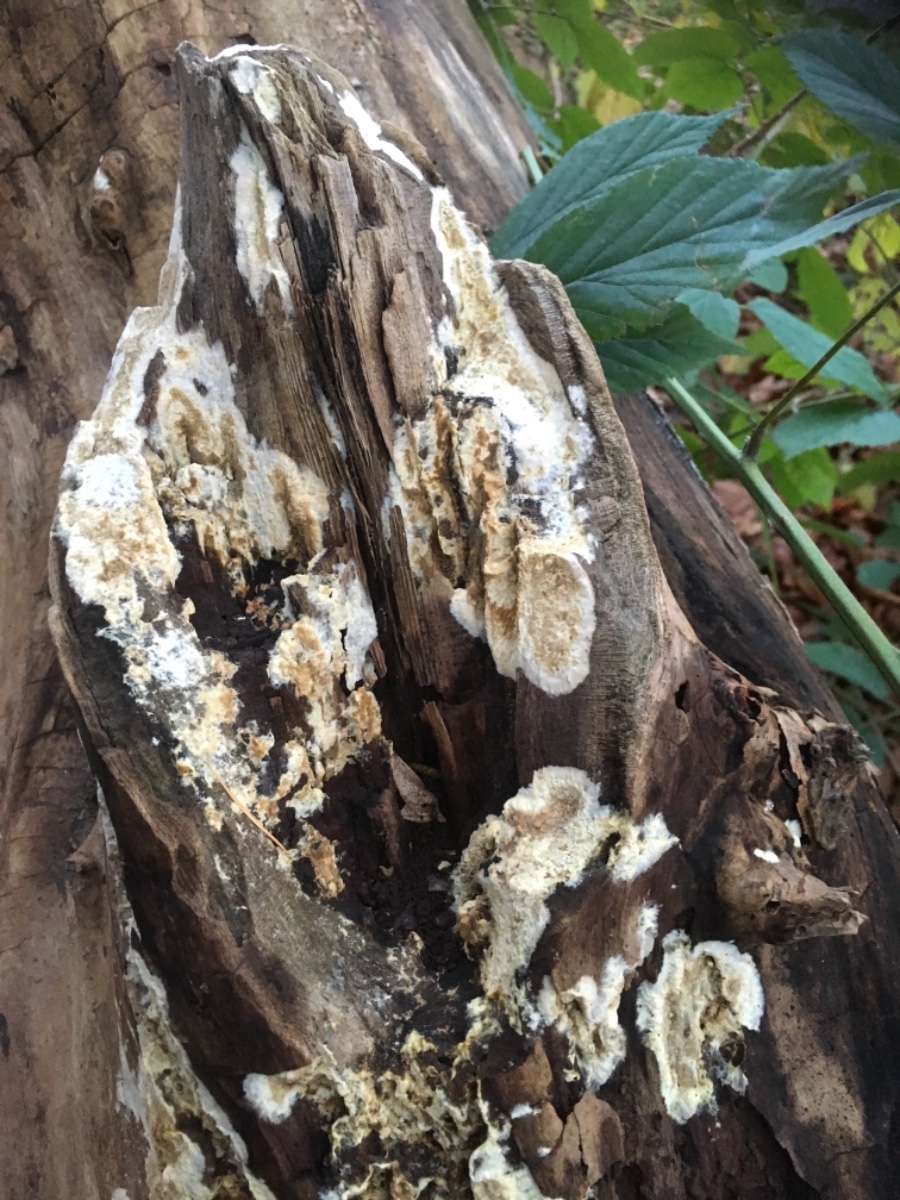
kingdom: Fungi
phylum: Basidiomycota
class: Agaricomycetes
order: Boletales
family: Coniophoraceae
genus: Coniophora
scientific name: Coniophora
